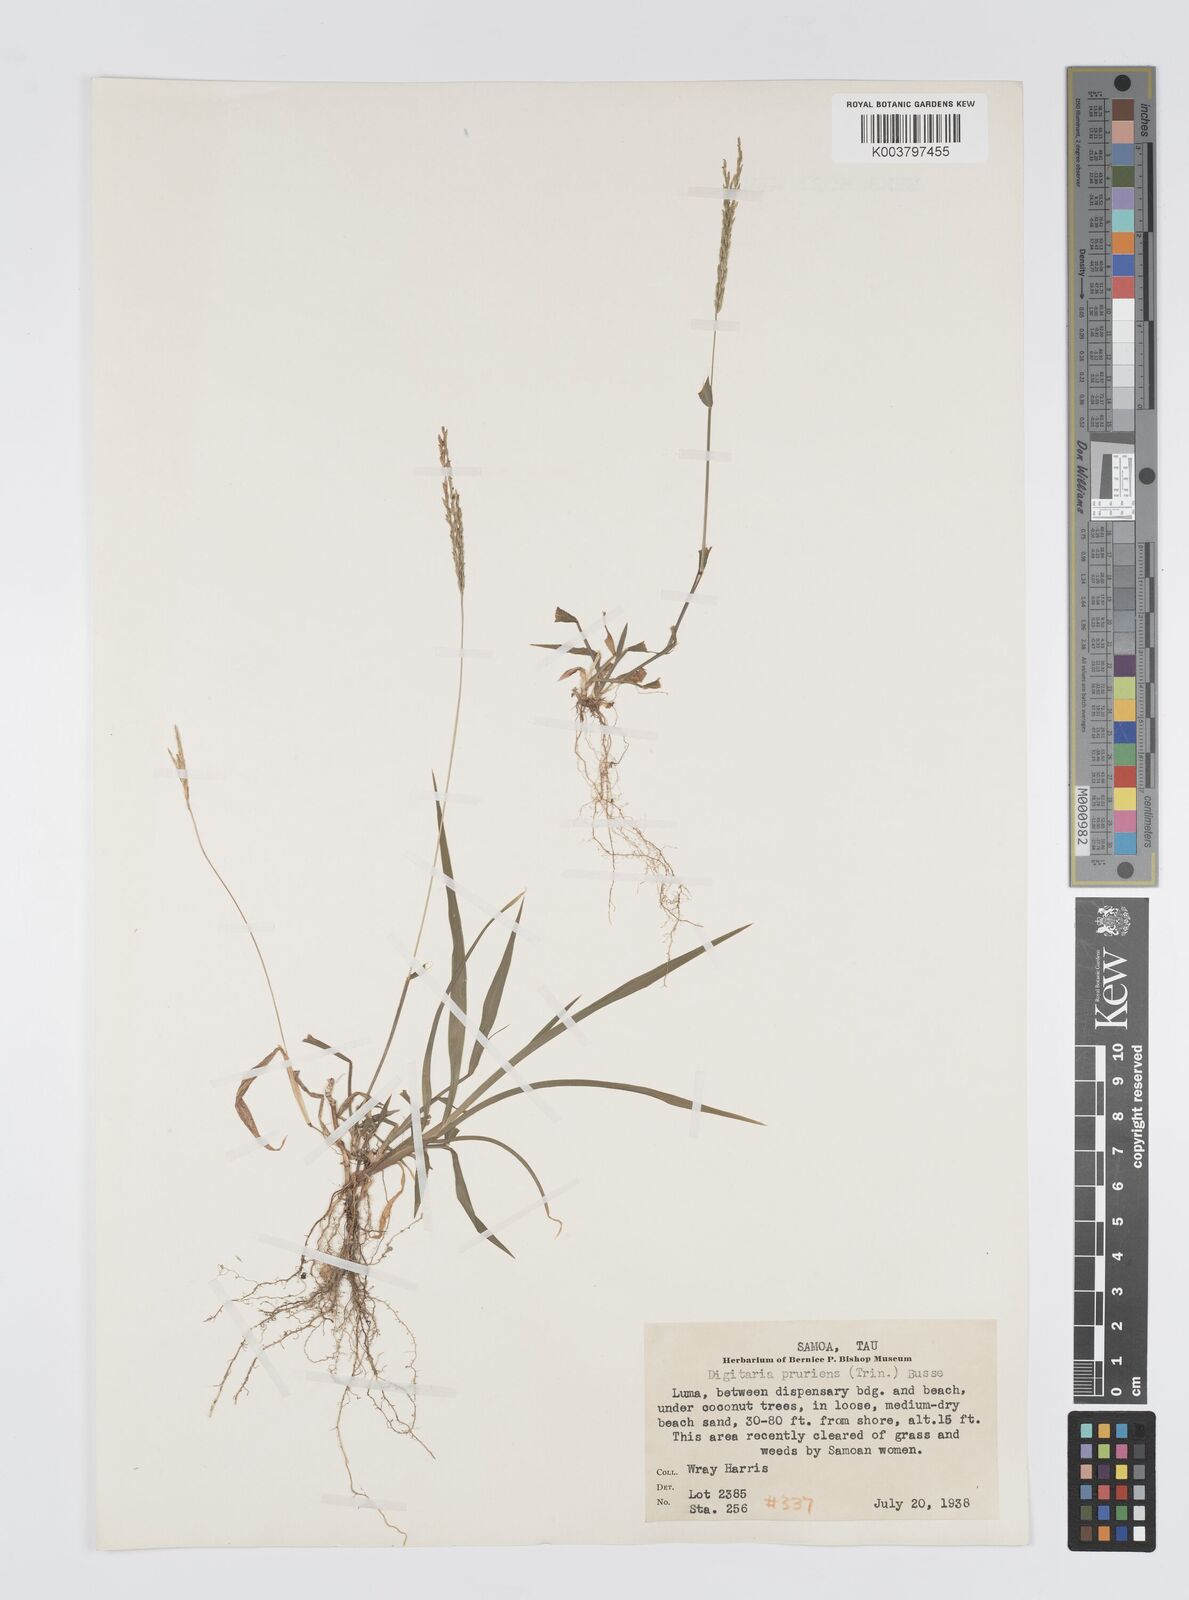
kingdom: Plantae
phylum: Tracheophyta
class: Liliopsida
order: Poales
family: Poaceae
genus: Digitaria
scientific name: Digitaria setigera
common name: East indian crabgrass
